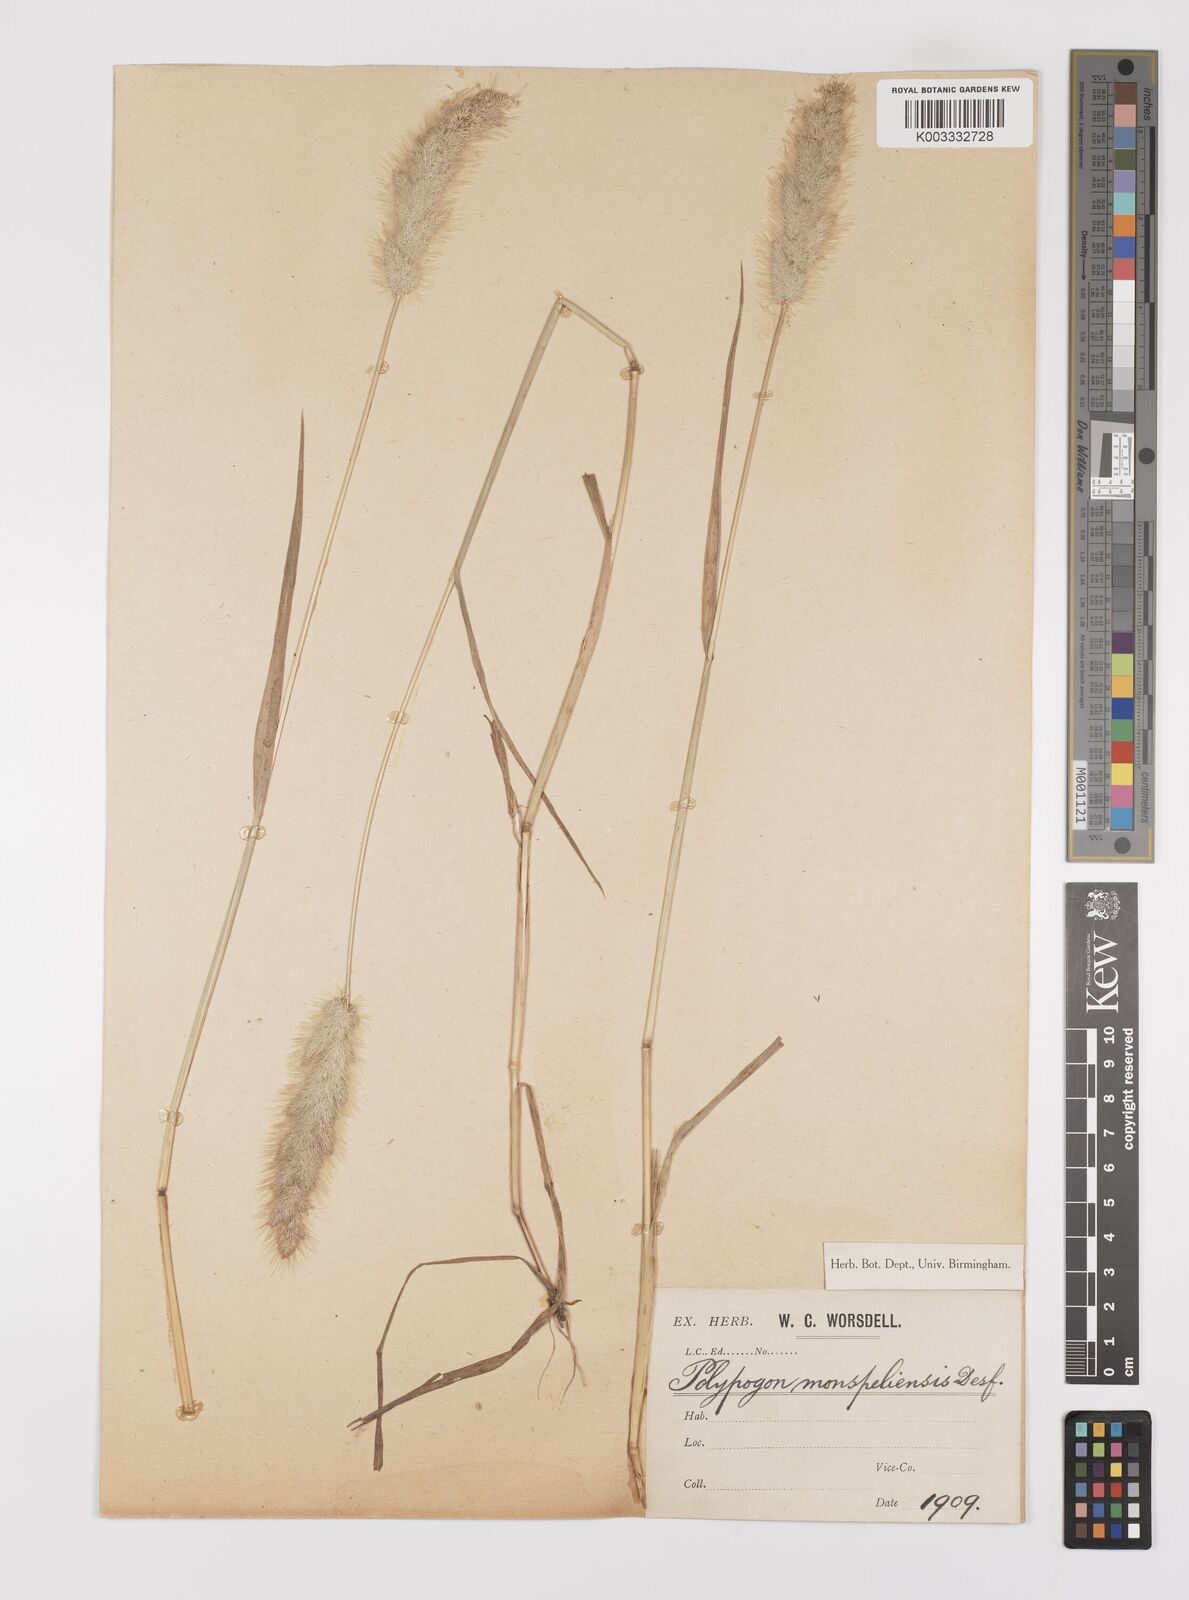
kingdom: Plantae
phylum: Tracheophyta
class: Liliopsida
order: Poales
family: Poaceae
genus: Polypogon
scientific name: Polypogon monspeliensis
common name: Annual rabbitsfoot grass
